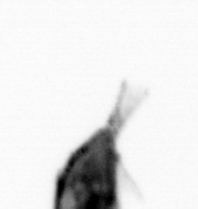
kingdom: Animalia
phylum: Arthropoda
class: Copepoda
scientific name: Copepoda
